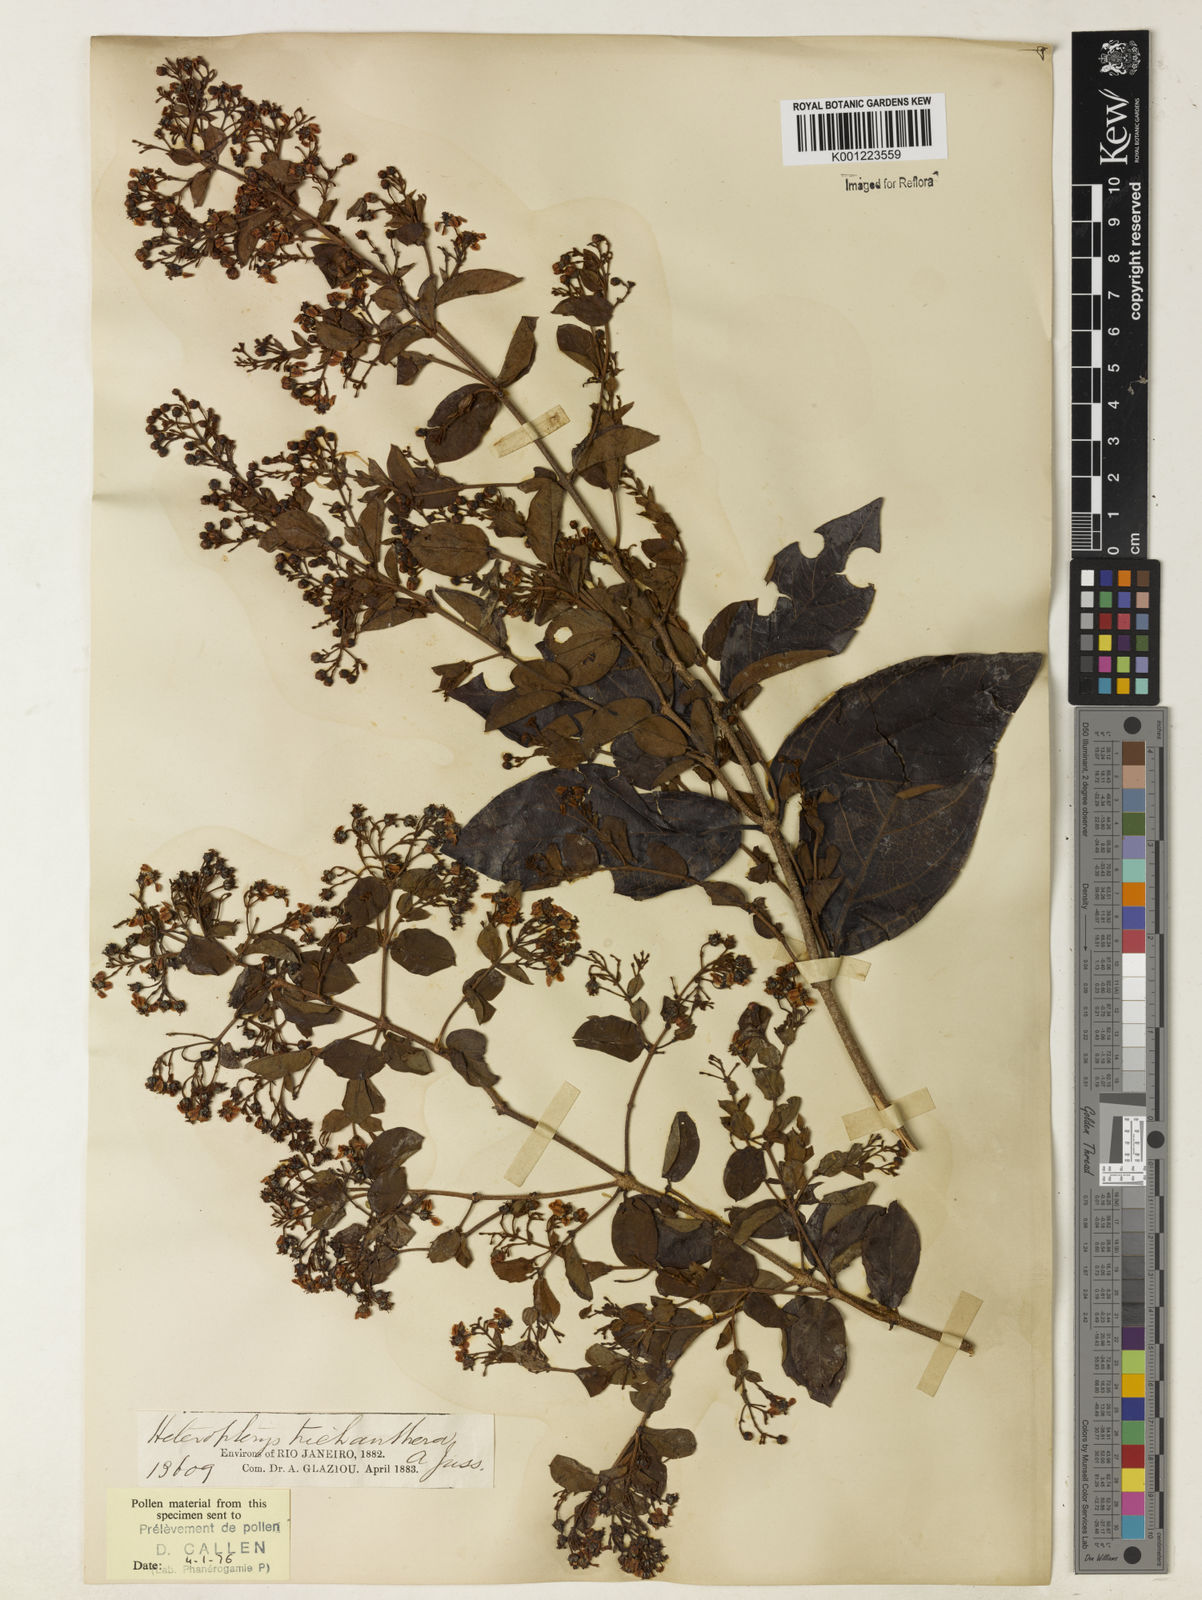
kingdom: Plantae
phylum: Tracheophyta
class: Magnoliopsida
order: Malpighiales
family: Malpighiaceae
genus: Heteropterys
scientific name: Heteropterys trichanthera
